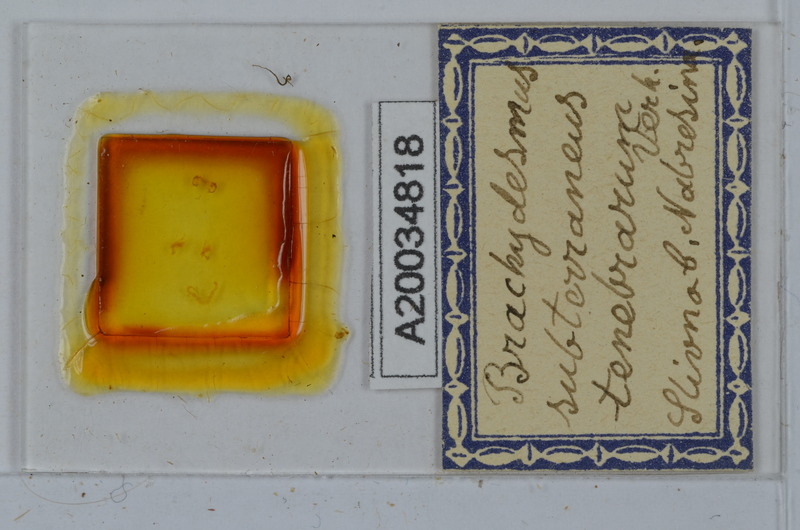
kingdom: Animalia
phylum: Arthropoda
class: Diplopoda
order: Polydesmida
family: Polydesmidae
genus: Brachydesmus
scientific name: Brachydesmus subterraneus
